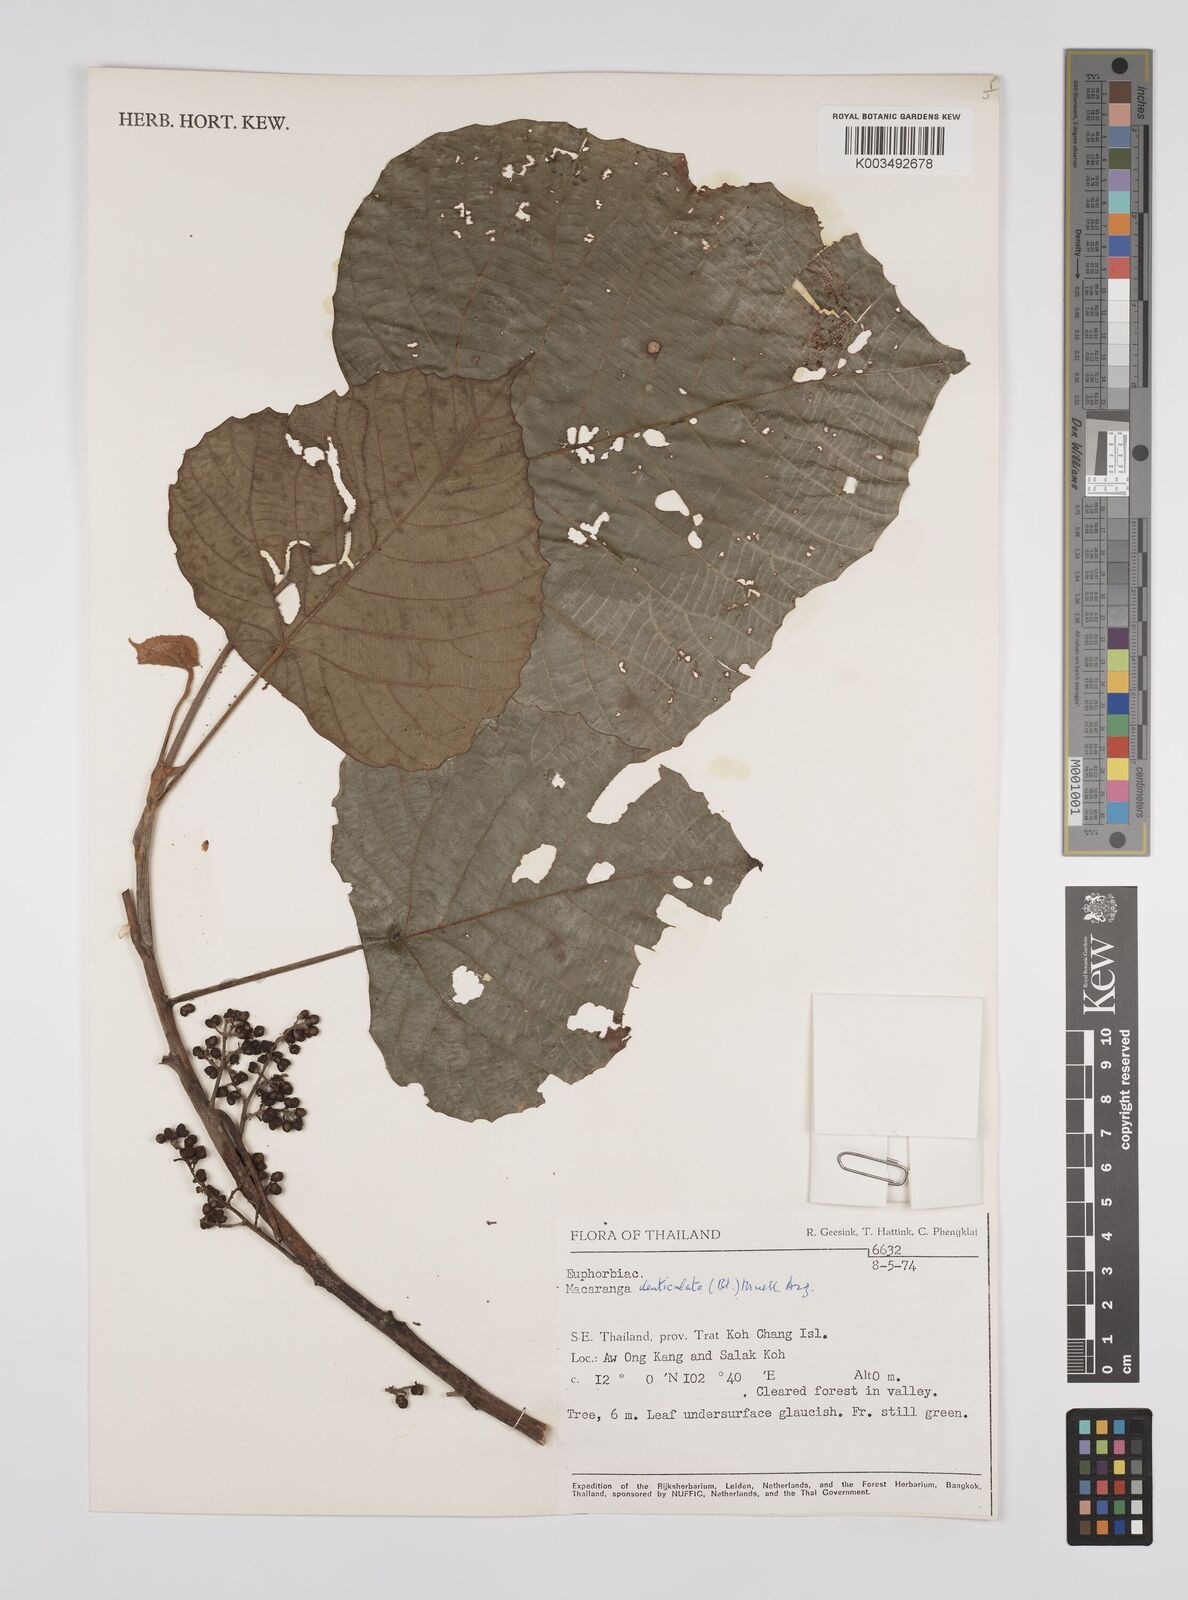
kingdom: Plantae
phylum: Tracheophyta
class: Magnoliopsida
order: Malpighiales
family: Euphorbiaceae
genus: Macaranga
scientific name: Macaranga denticulata
